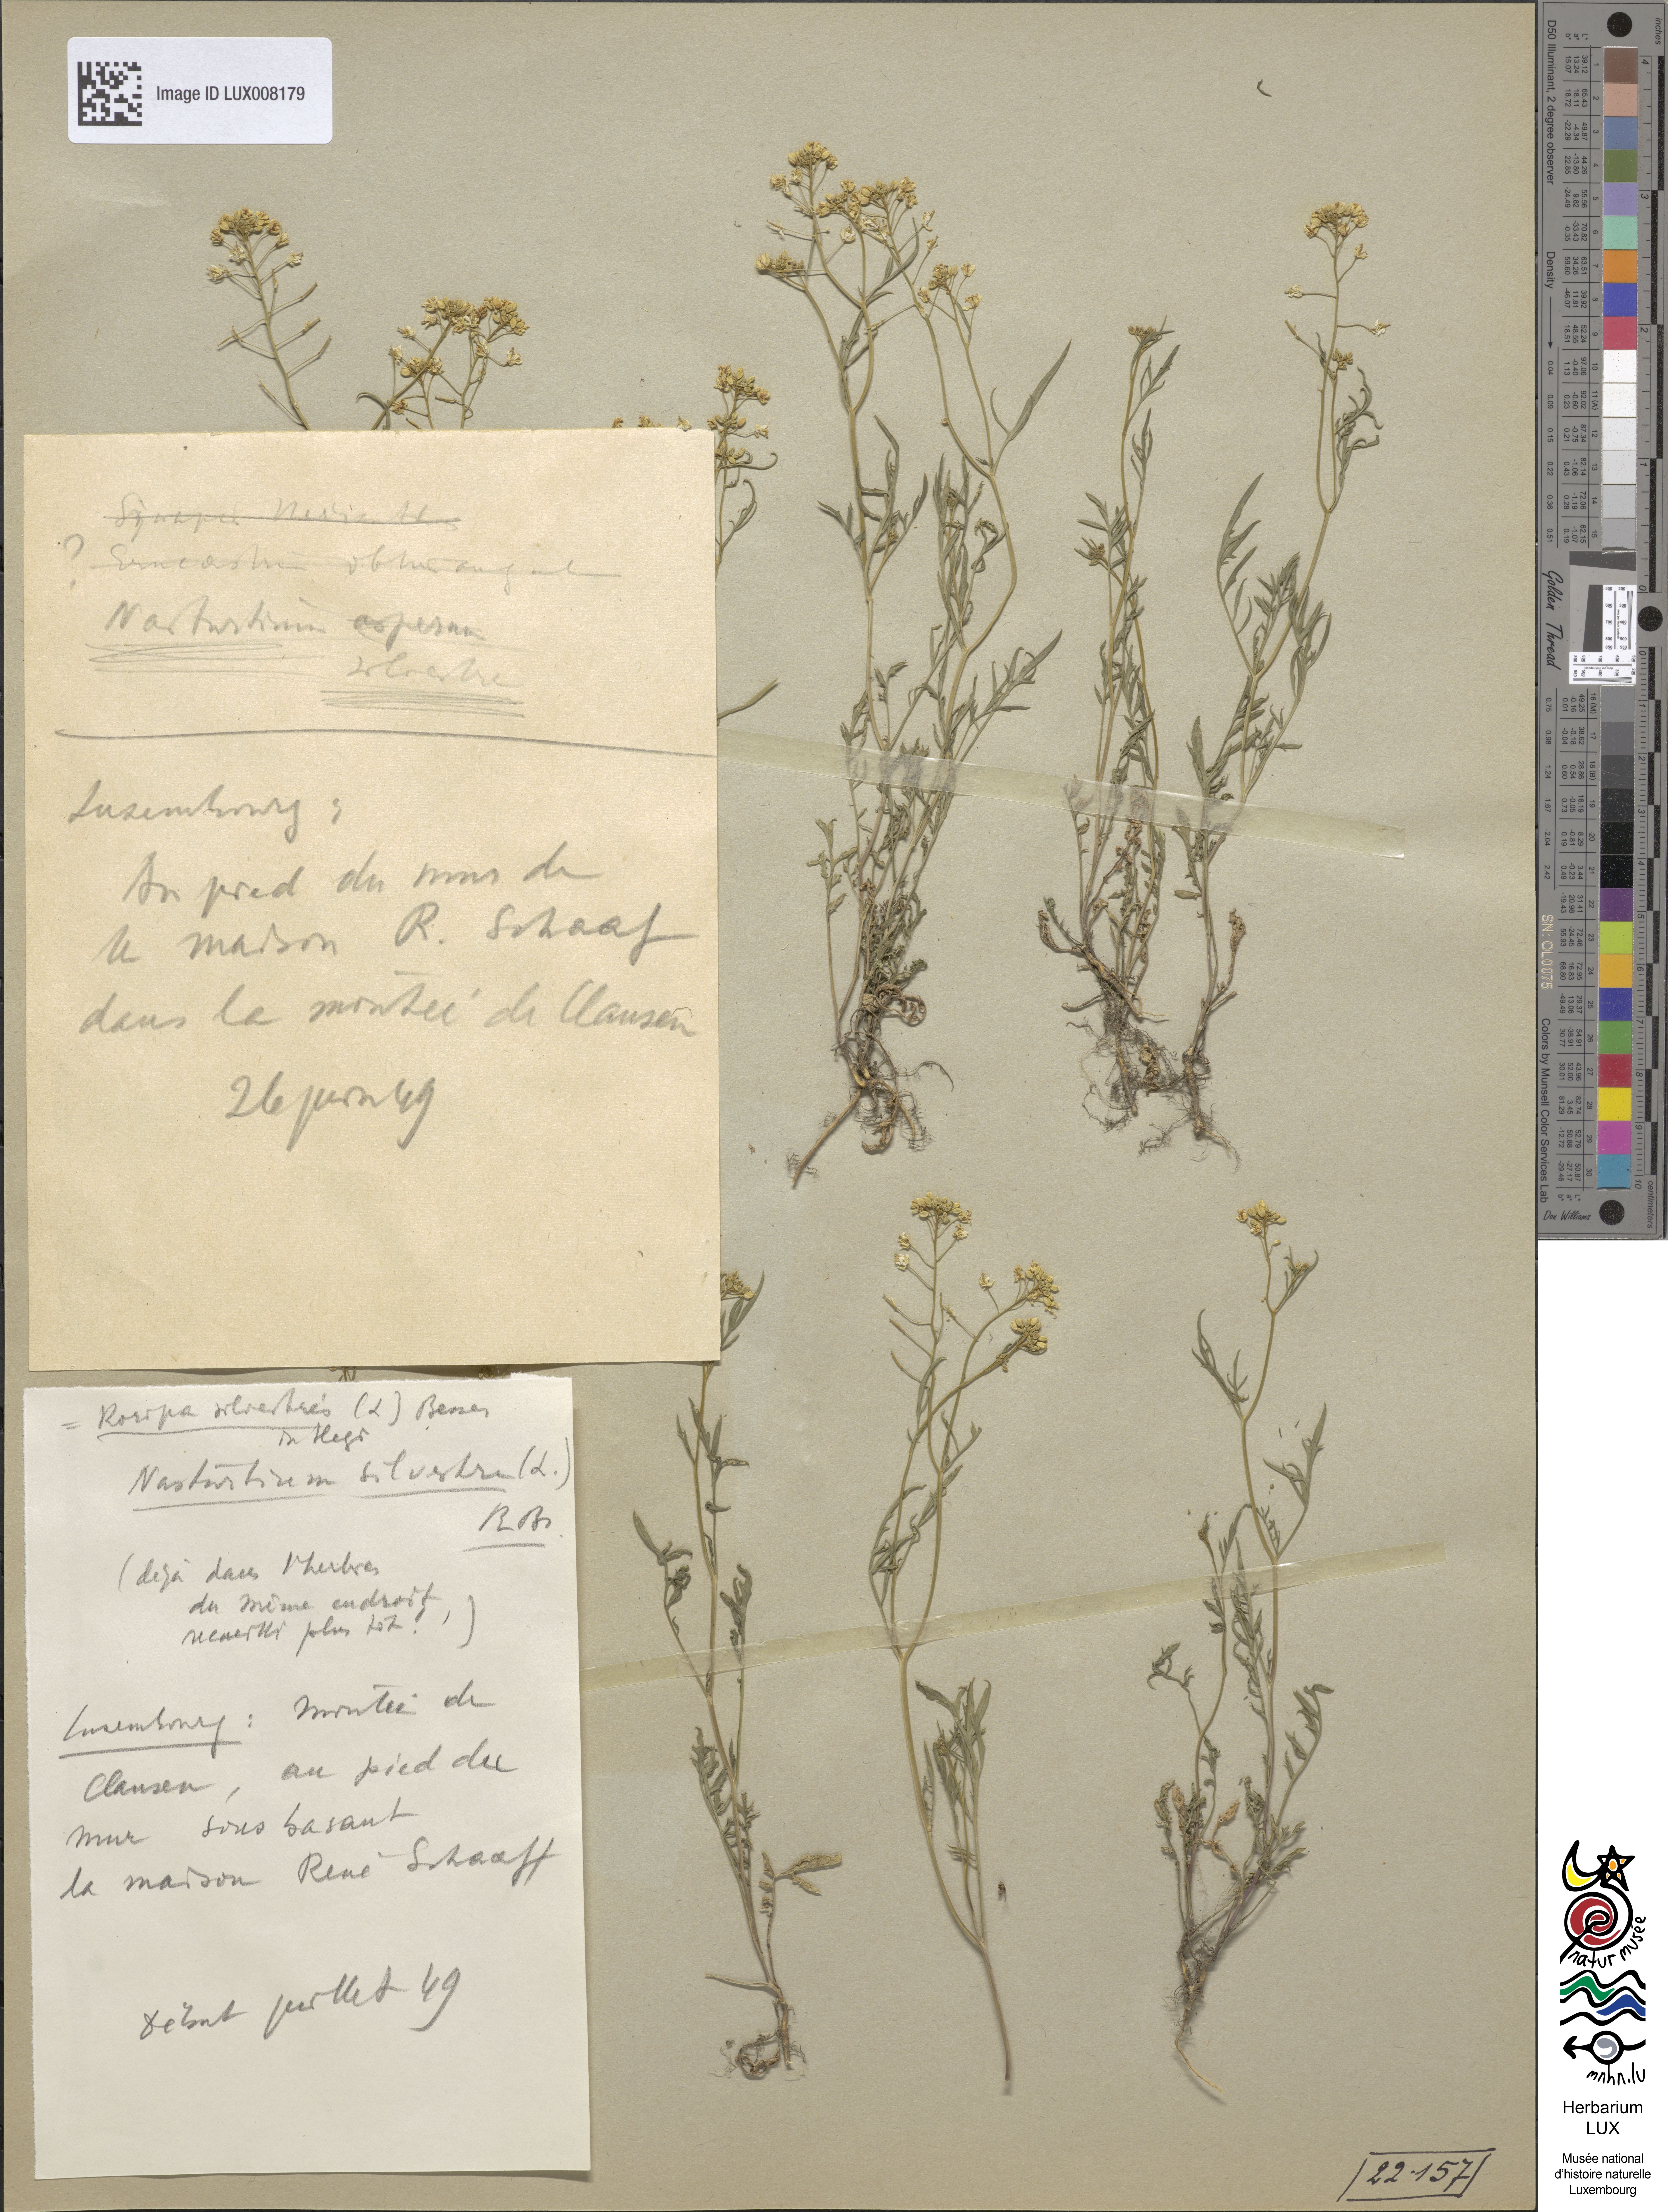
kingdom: Plantae
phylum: Tracheophyta
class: Magnoliopsida
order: Brassicales
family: Brassicaceae
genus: Rorippa
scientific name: Rorippa sylvestris
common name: Creeping yellowcress
